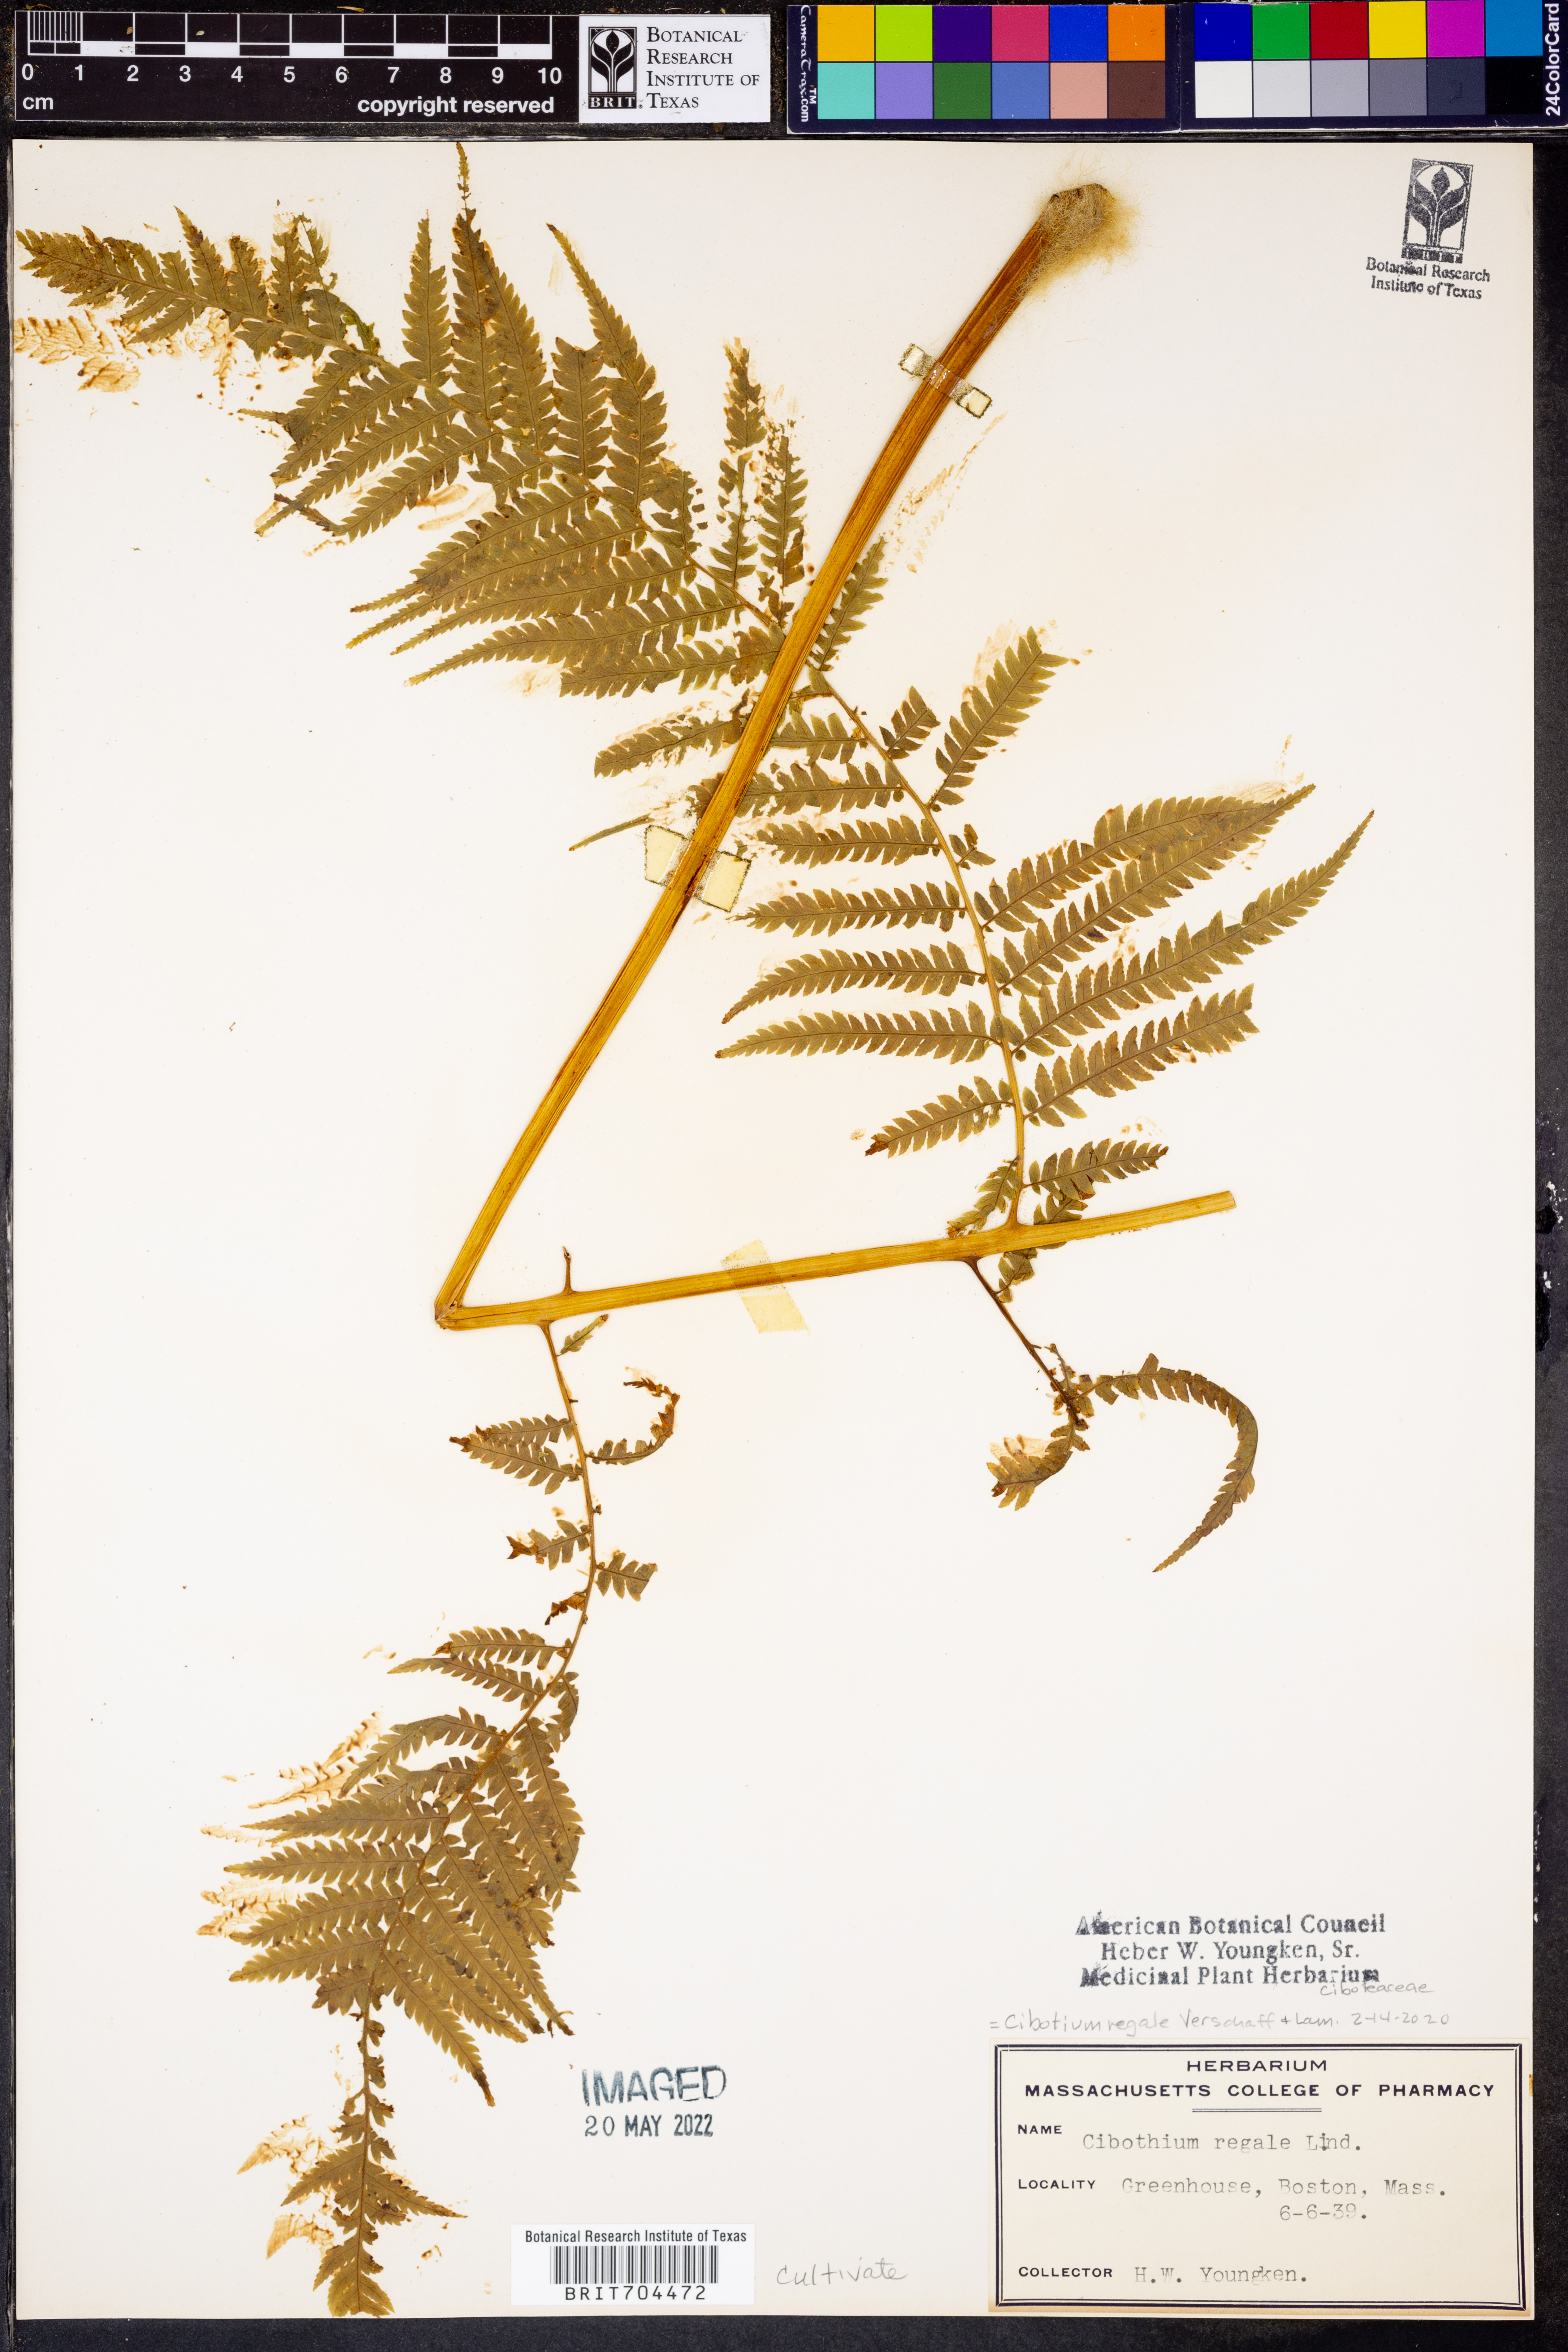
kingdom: Plantae
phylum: Tracheophyta
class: Polypodiopsida
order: Cyatheales
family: Cibotiaceae
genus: Cibotium
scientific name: Cibotium regale
